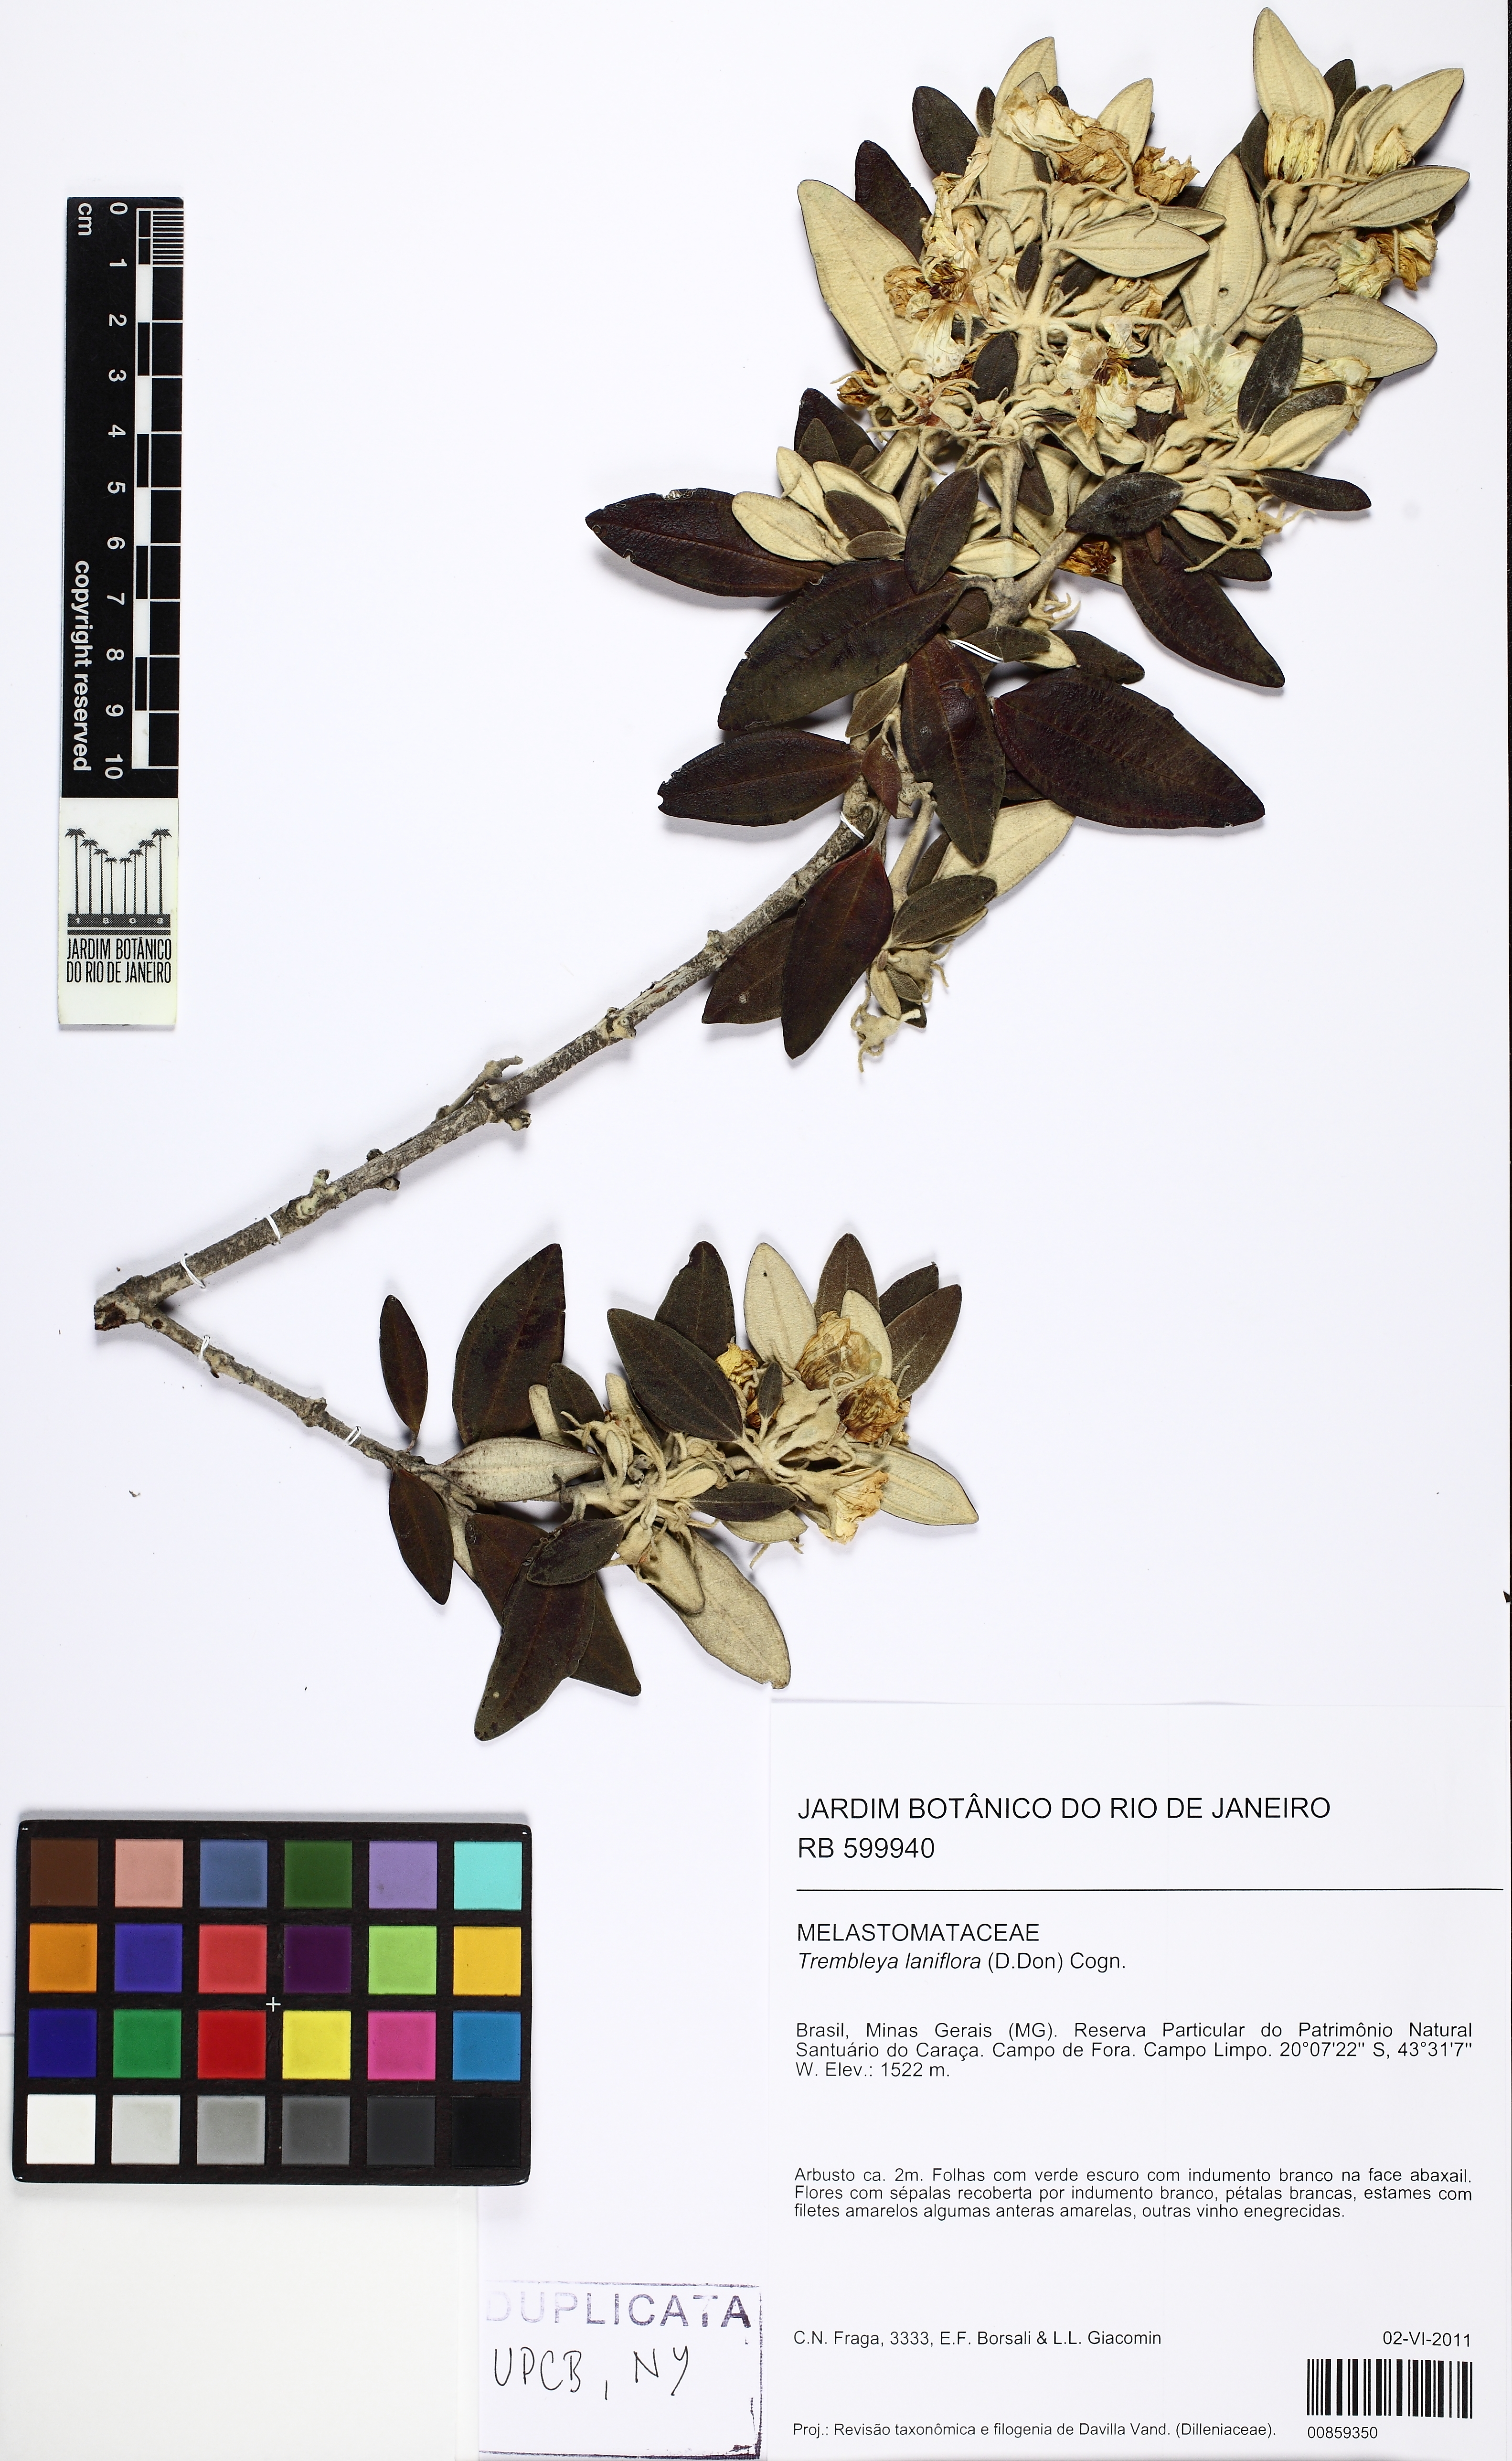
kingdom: Plantae
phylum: Tracheophyta
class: Magnoliopsida
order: Myrtales
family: Melastomataceae
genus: Microlicia
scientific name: Microlicia laniflora
